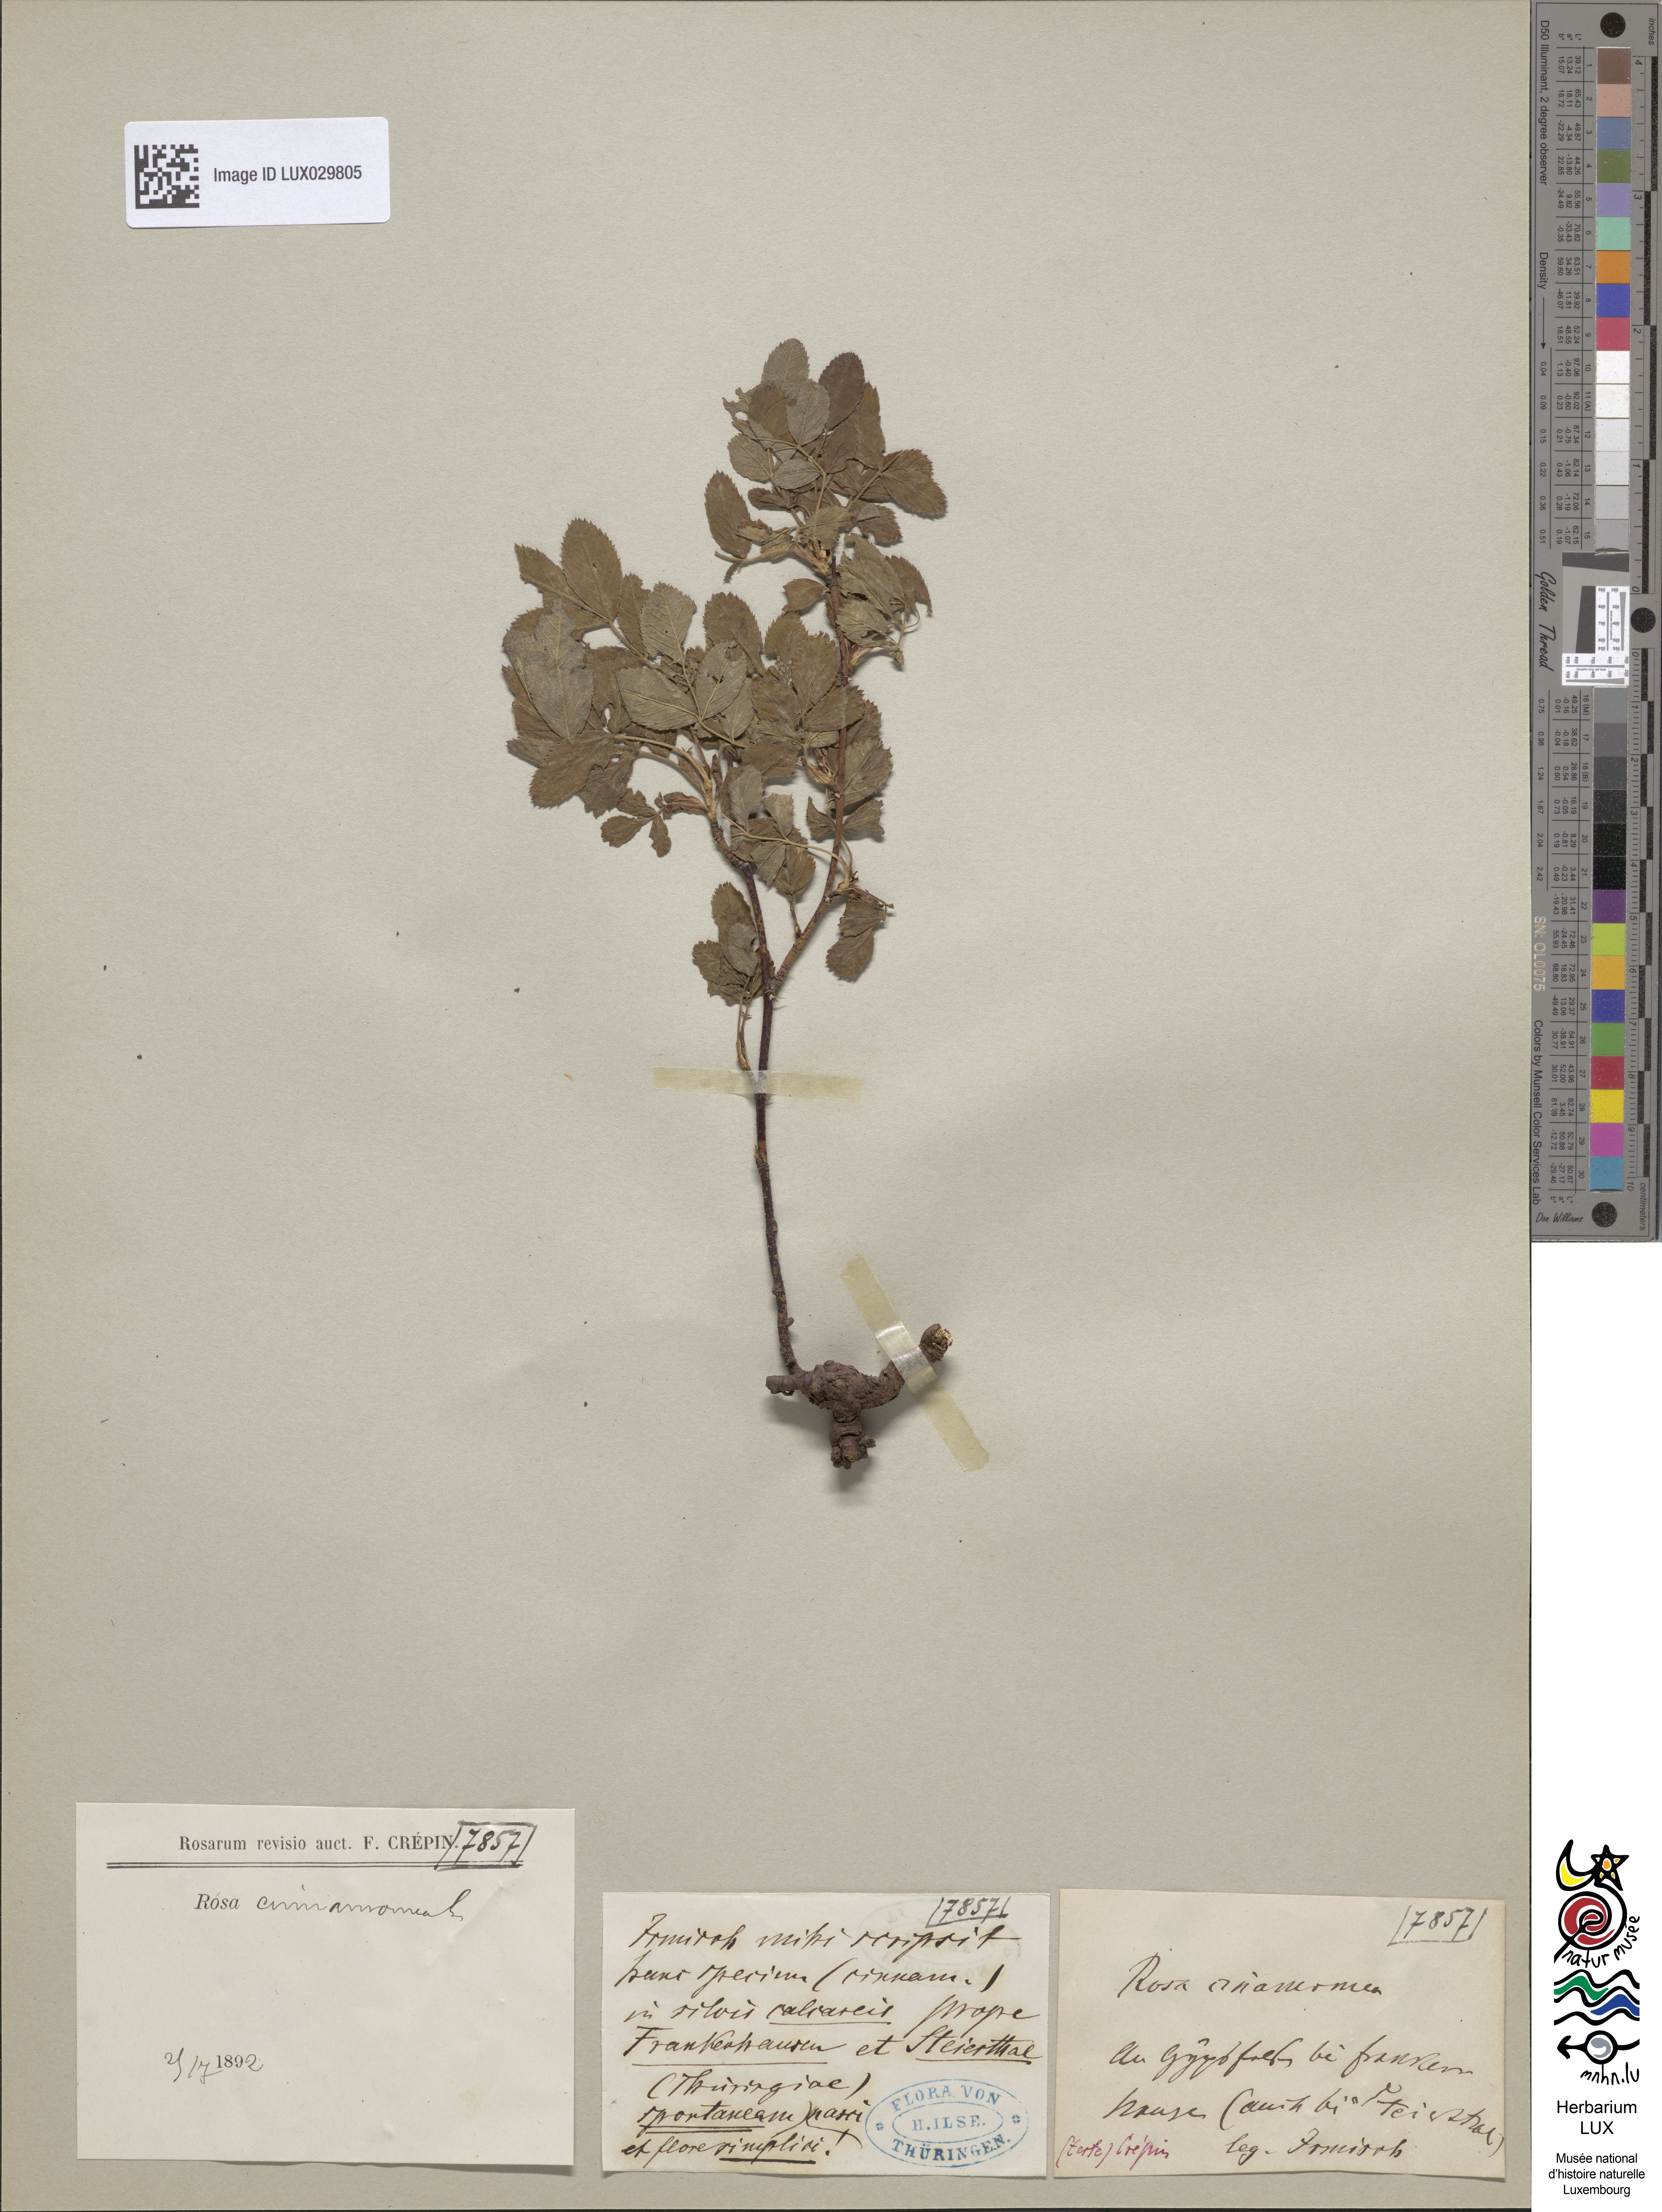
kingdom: Plantae
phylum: Tracheophyta
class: Magnoliopsida
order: Rosales
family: Rosaceae
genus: Rosa
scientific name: Rosa majalis
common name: Cinnamon rose
